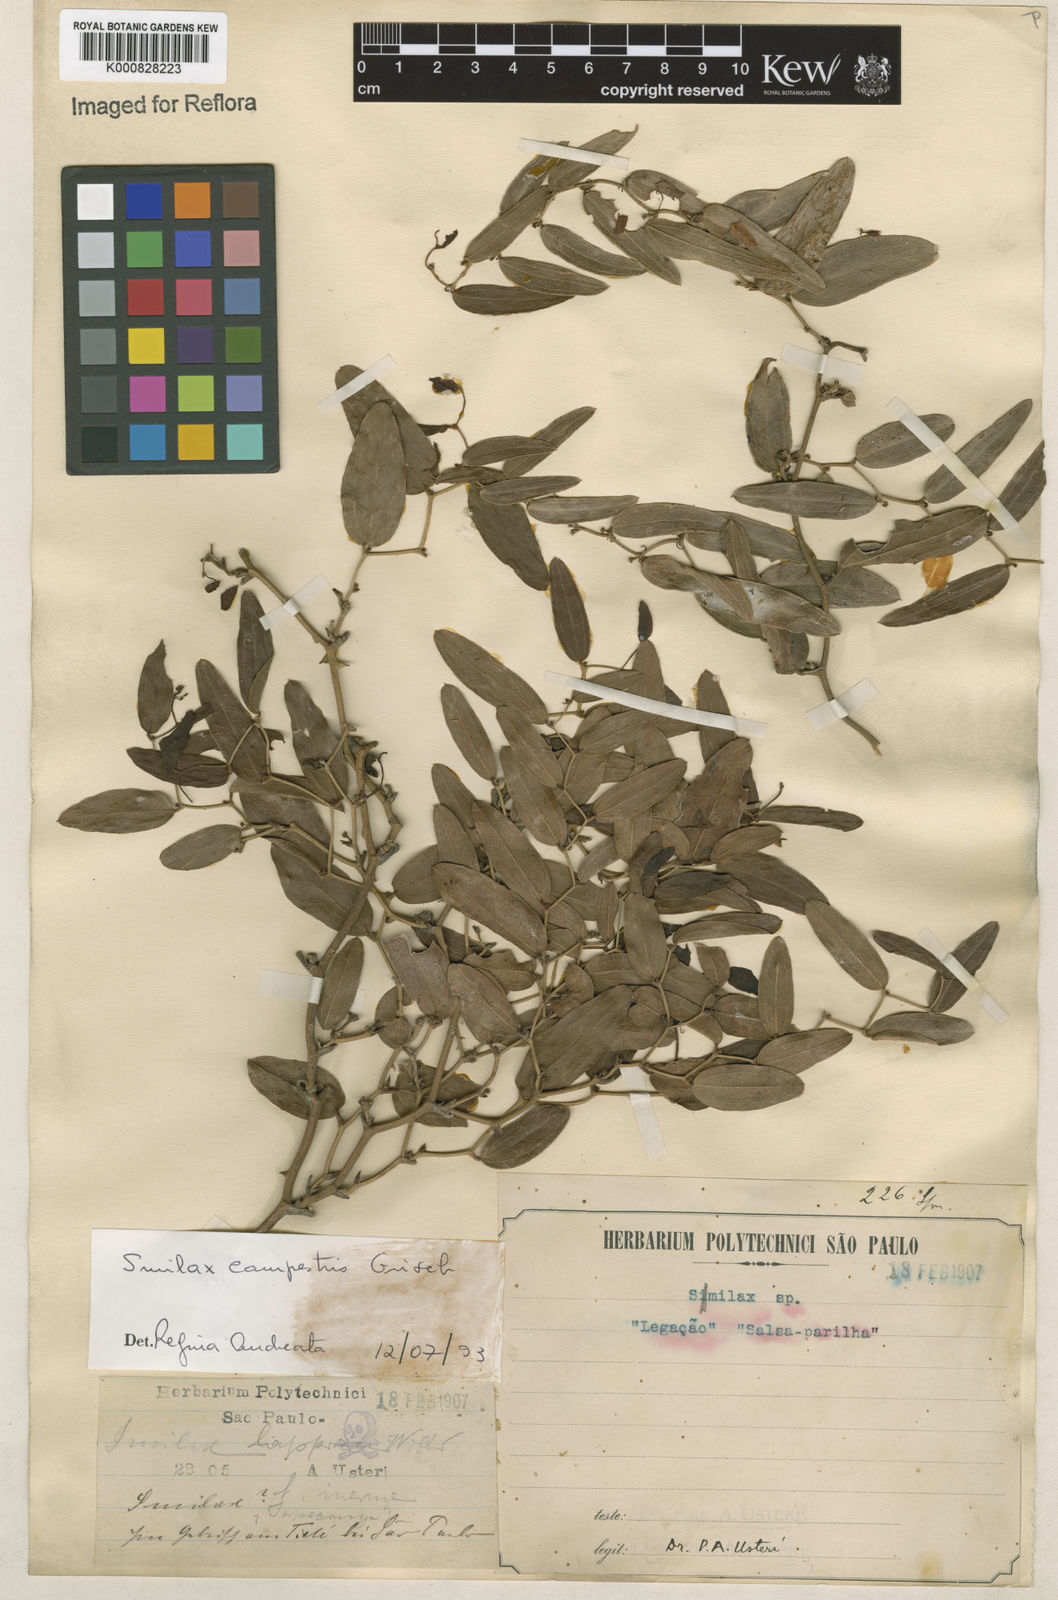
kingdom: Plantae
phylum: Tracheophyta
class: Liliopsida
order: Liliales
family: Smilacaceae
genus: Smilax
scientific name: Smilax campestris
